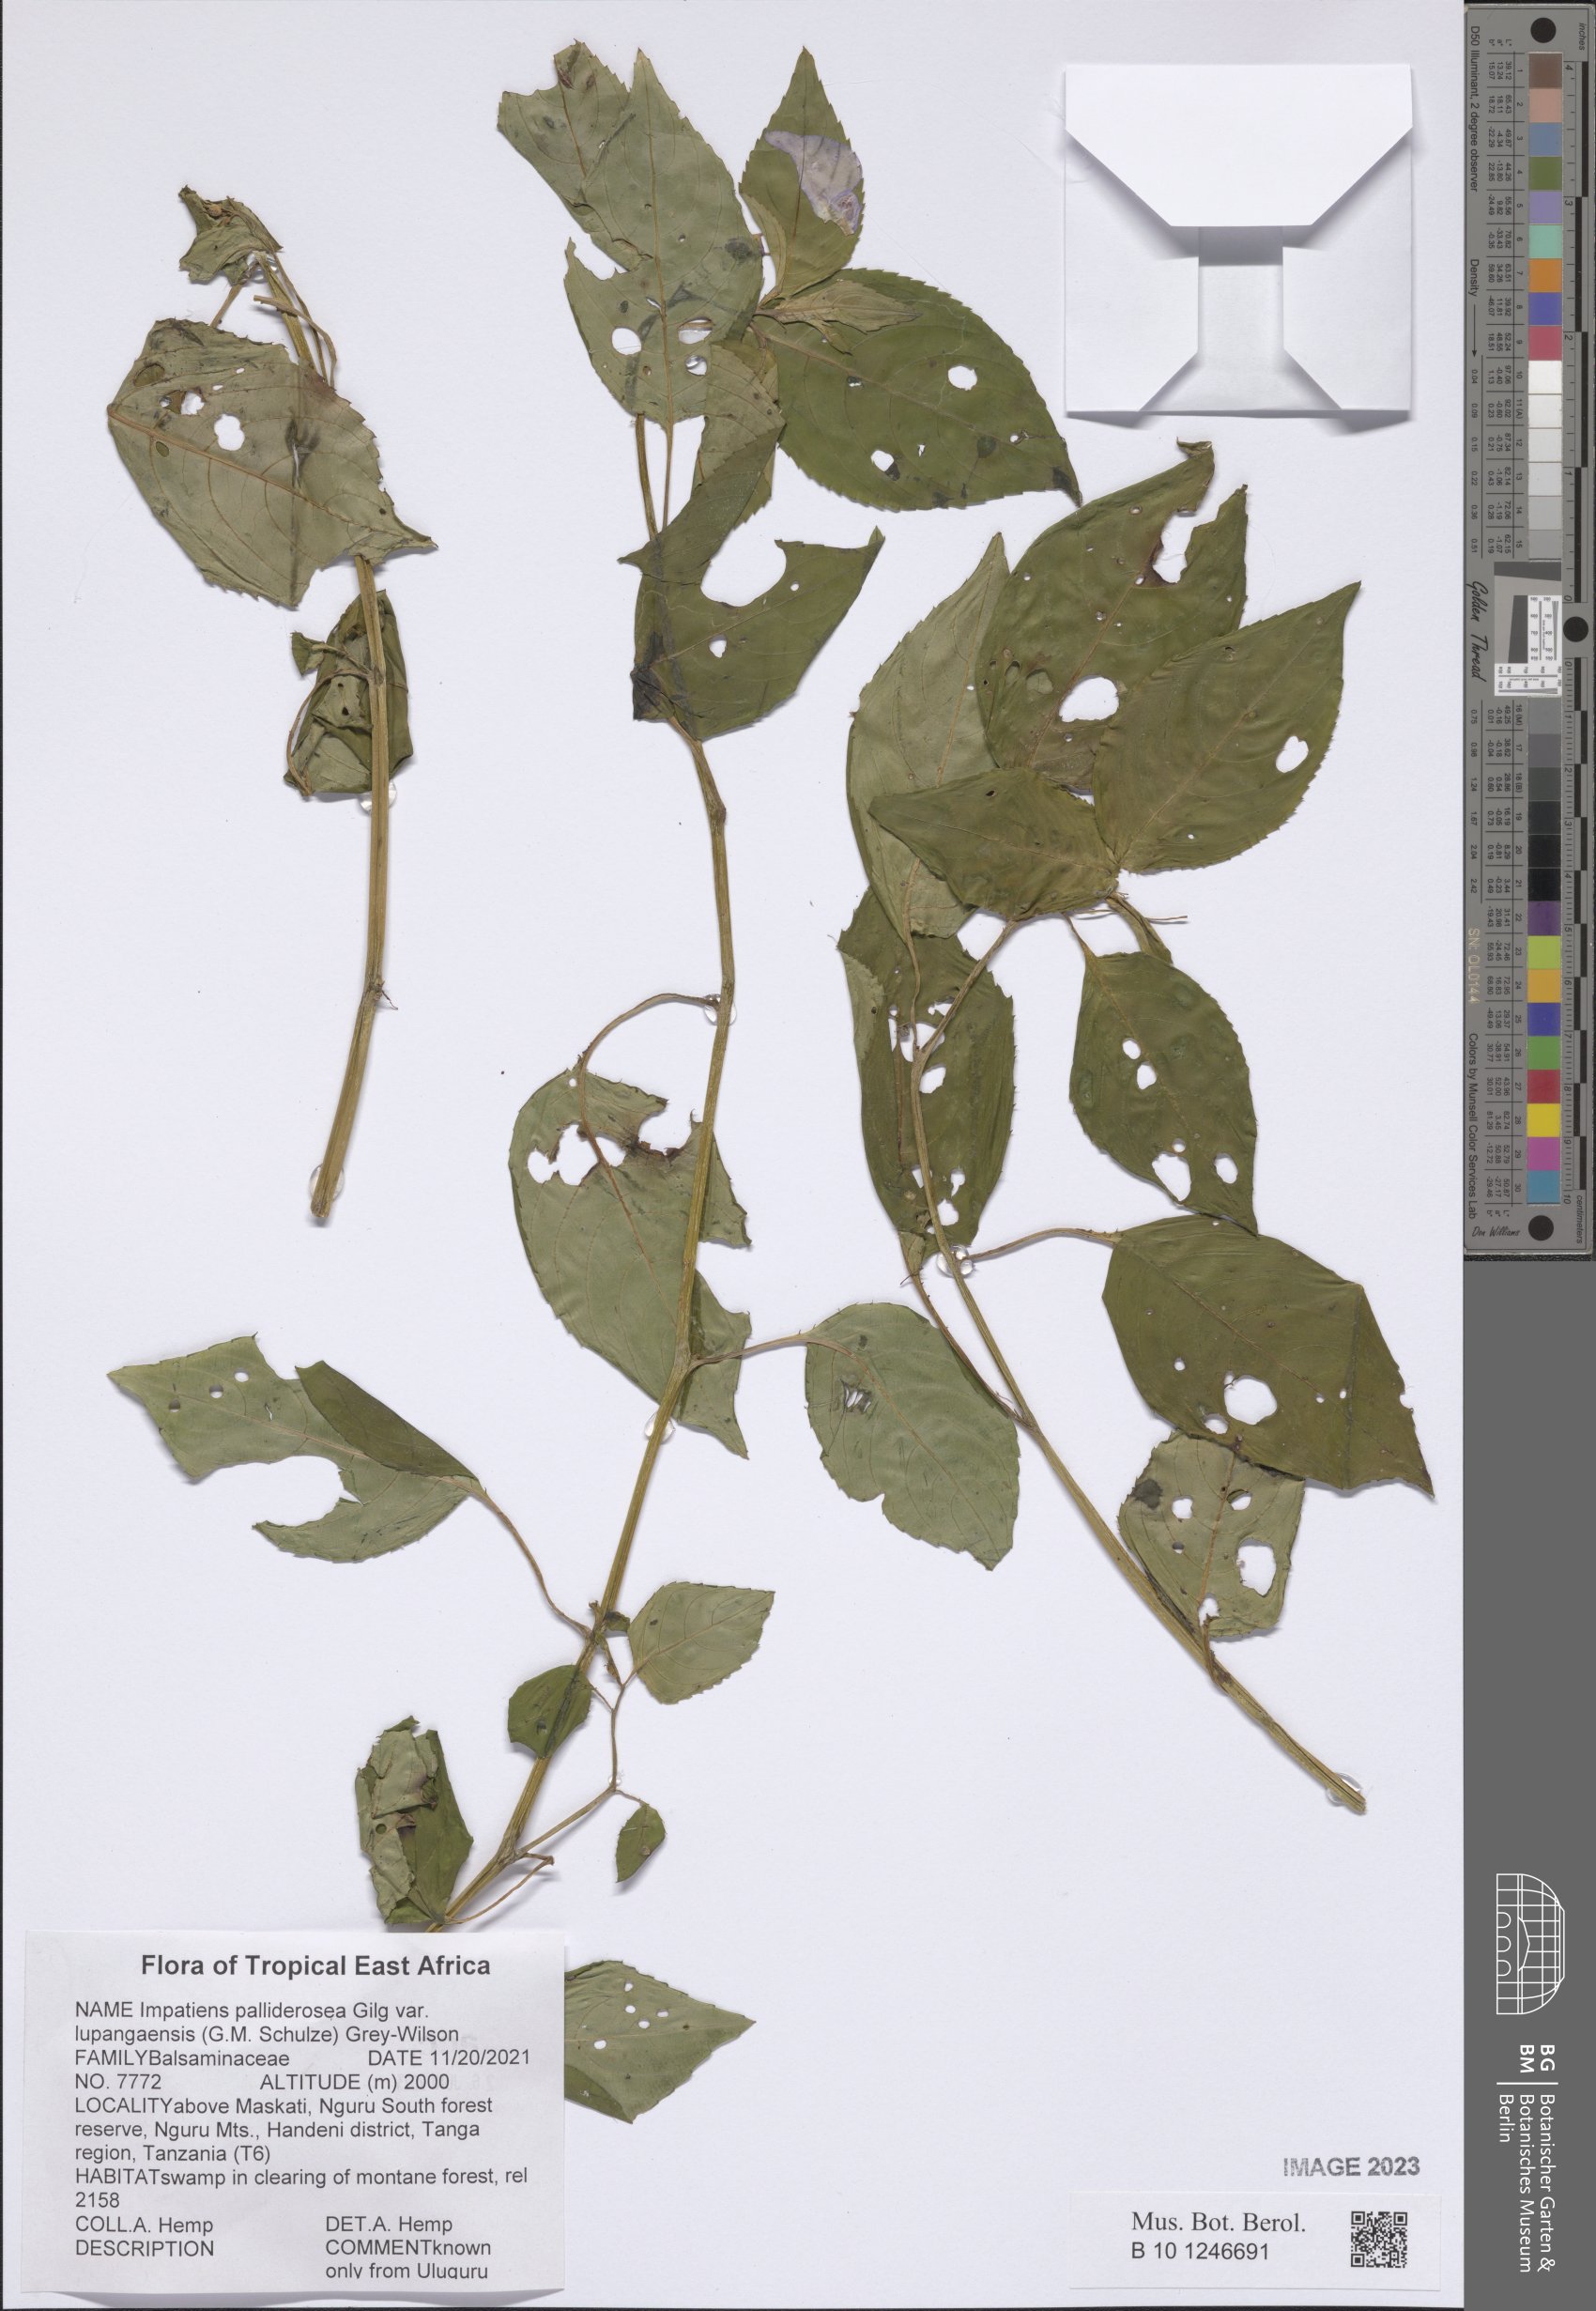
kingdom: Plantae
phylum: Tracheophyta
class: Magnoliopsida
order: Ericales
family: Balsaminaceae
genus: Impatiens
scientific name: Impatiens pallide-rosea
